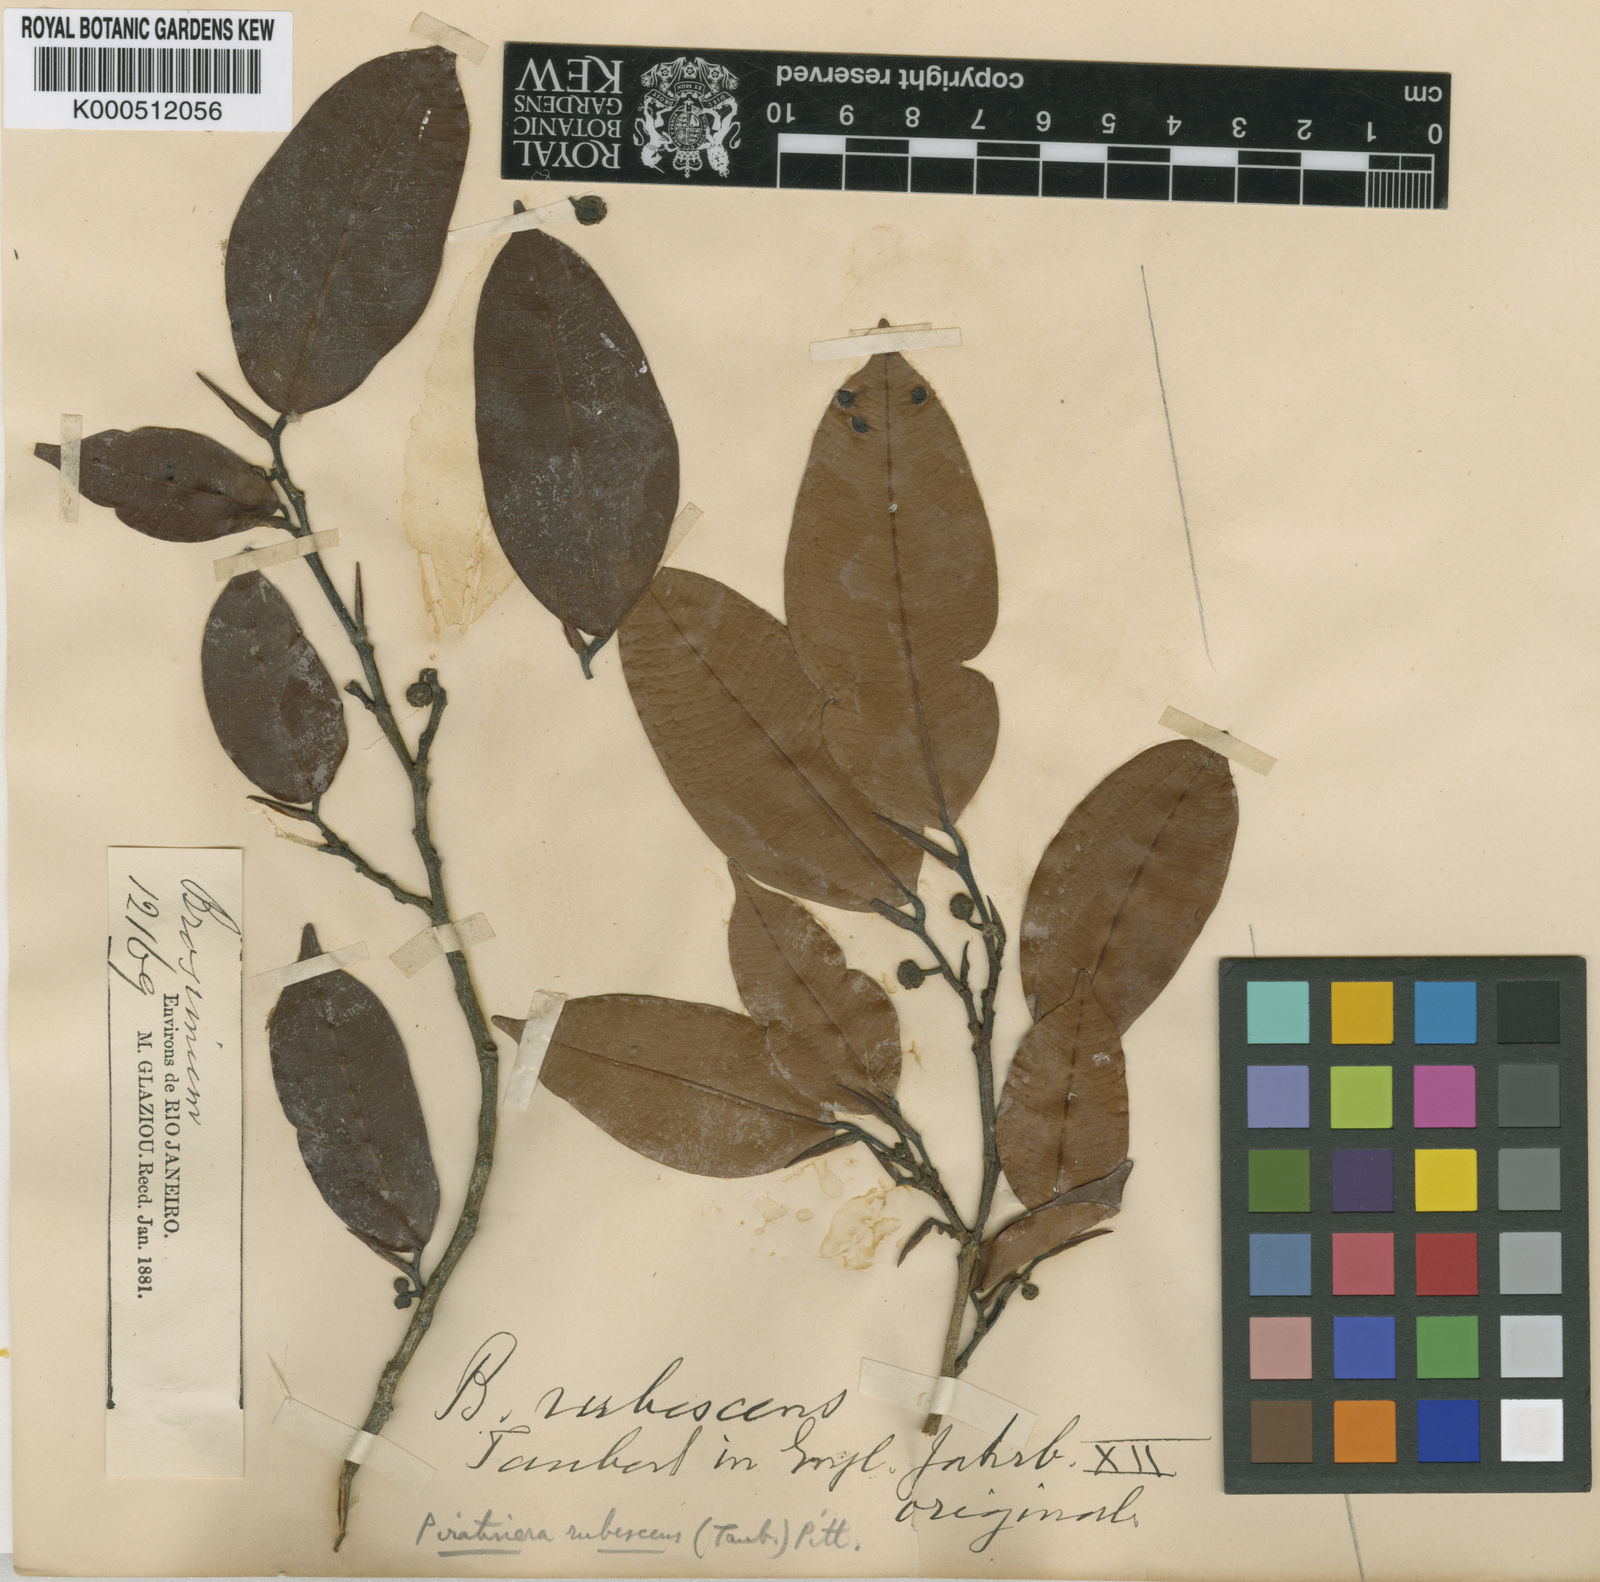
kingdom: Plantae
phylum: Tracheophyta
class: Magnoliopsida
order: Rosales
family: Moraceae
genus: Brosimum
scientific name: Brosimum rubescens
